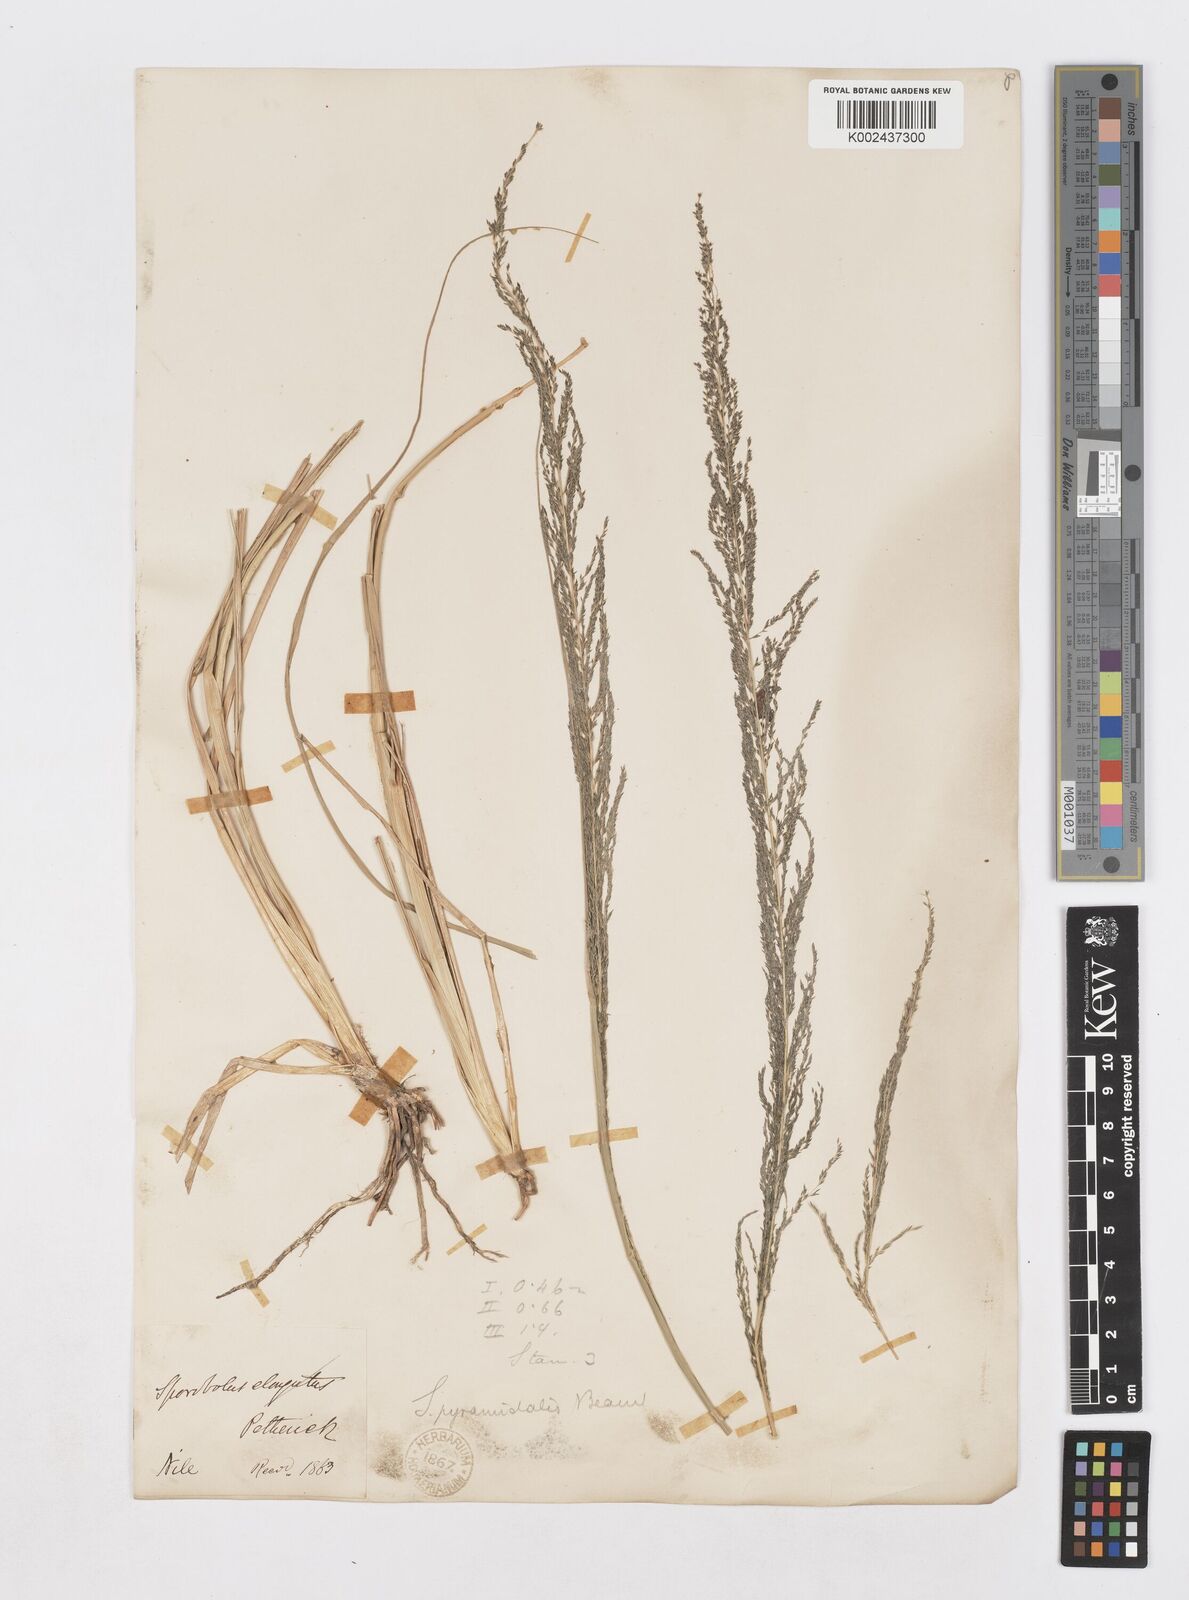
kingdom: Plantae
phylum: Tracheophyta
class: Liliopsida
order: Poales
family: Poaceae
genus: Sporobolus
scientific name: Sporobolus pyramidalis
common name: West indian dropseed
